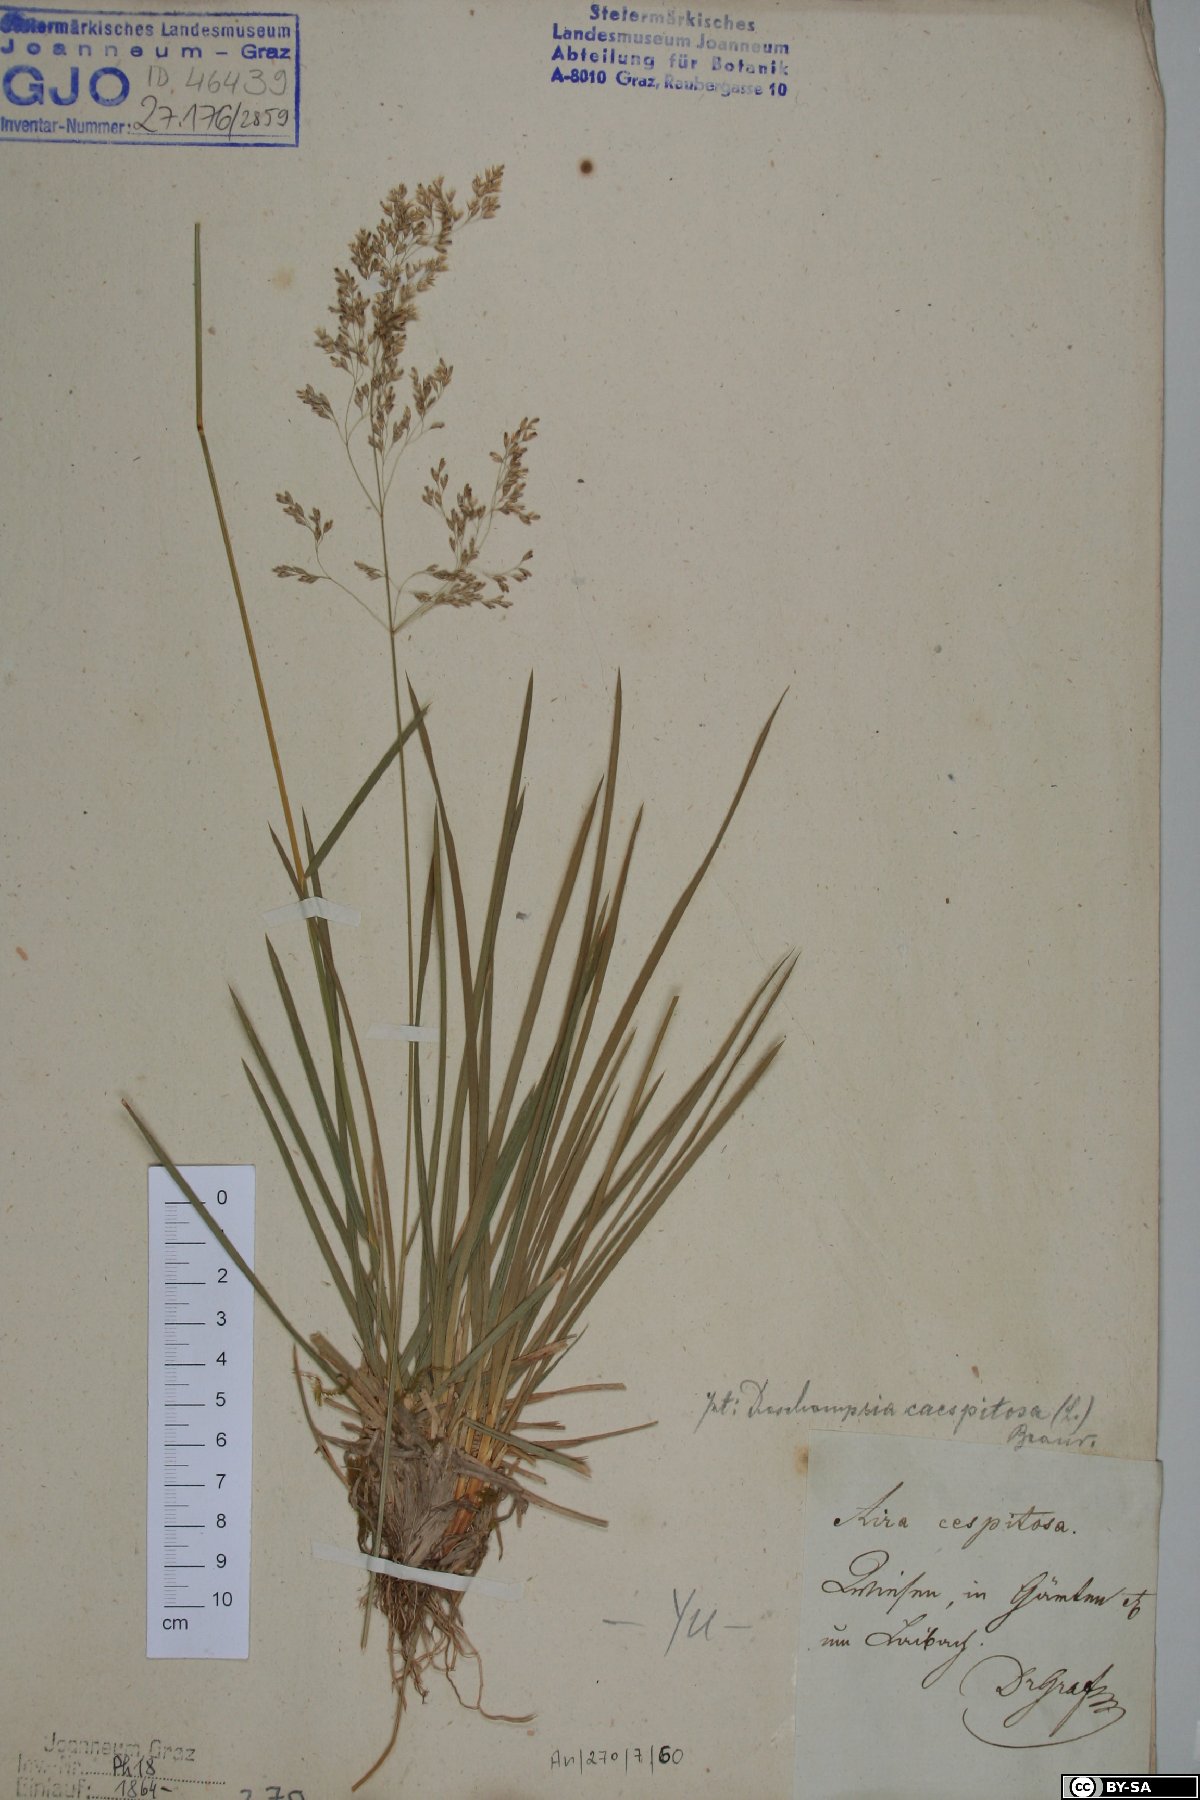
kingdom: Plantae
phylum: Tracheophyta
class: Liliopsida
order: Poales
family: Poaceae
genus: Deschampsia
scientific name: Deschampsia cespitosa
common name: Tufted hair-grass
